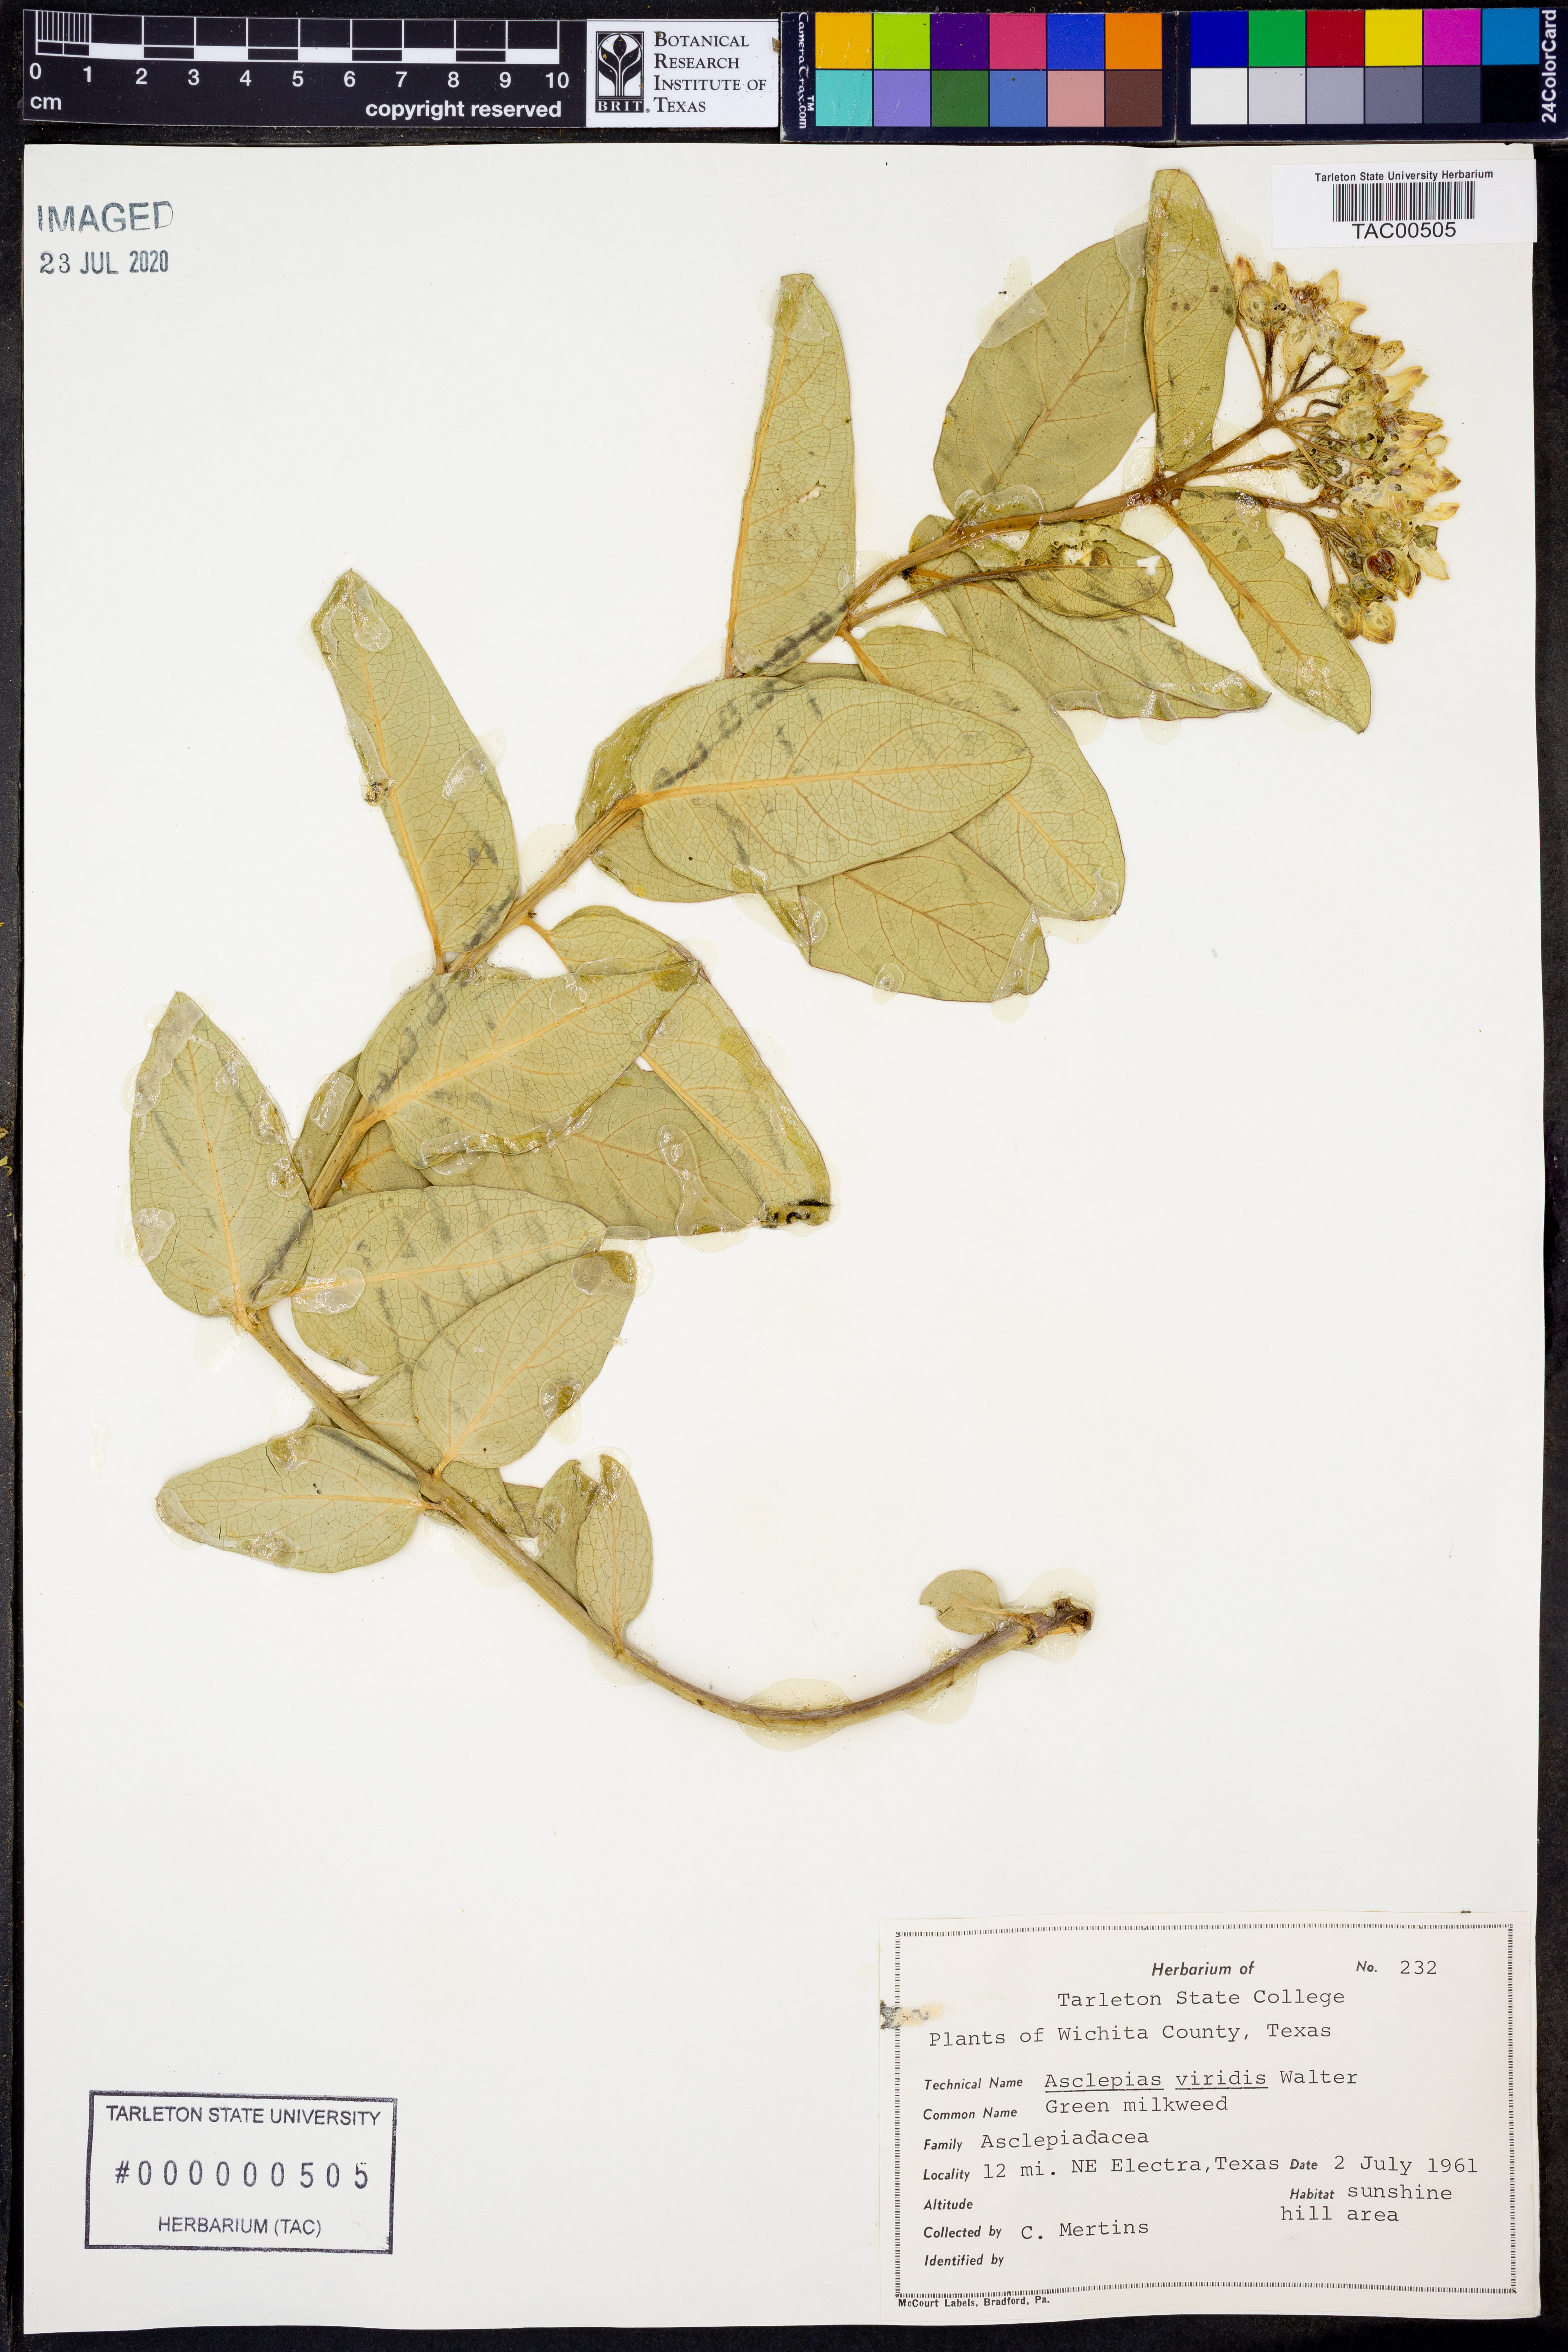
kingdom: Plantae
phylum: Tracheophyta
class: Magnoliopsida
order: Gentianales
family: Apocynaceae
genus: Asclepias
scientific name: Asclepias viridis
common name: Antelope-horns
